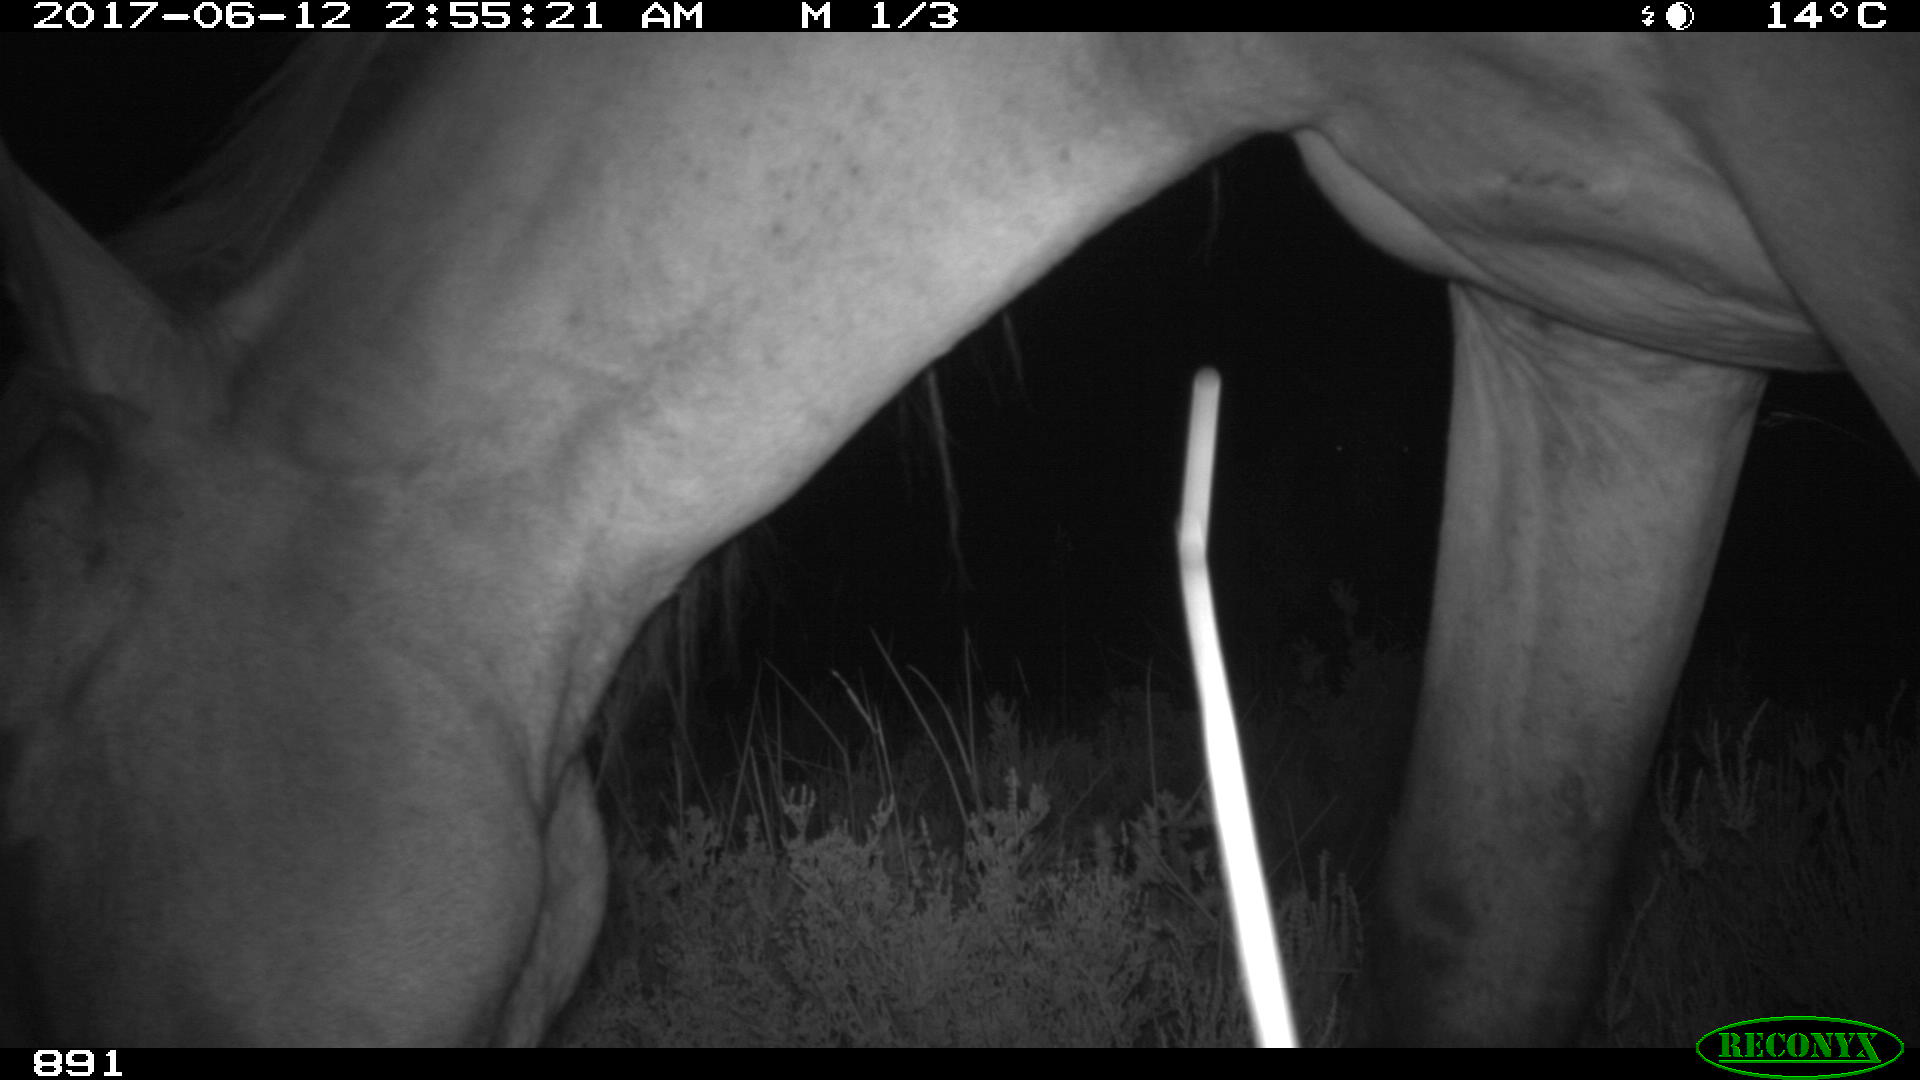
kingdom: Animalia
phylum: Chordata
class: Mammalia
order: Perissodactyla
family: Equidae
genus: Equus
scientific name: Equus caballus
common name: Horse
